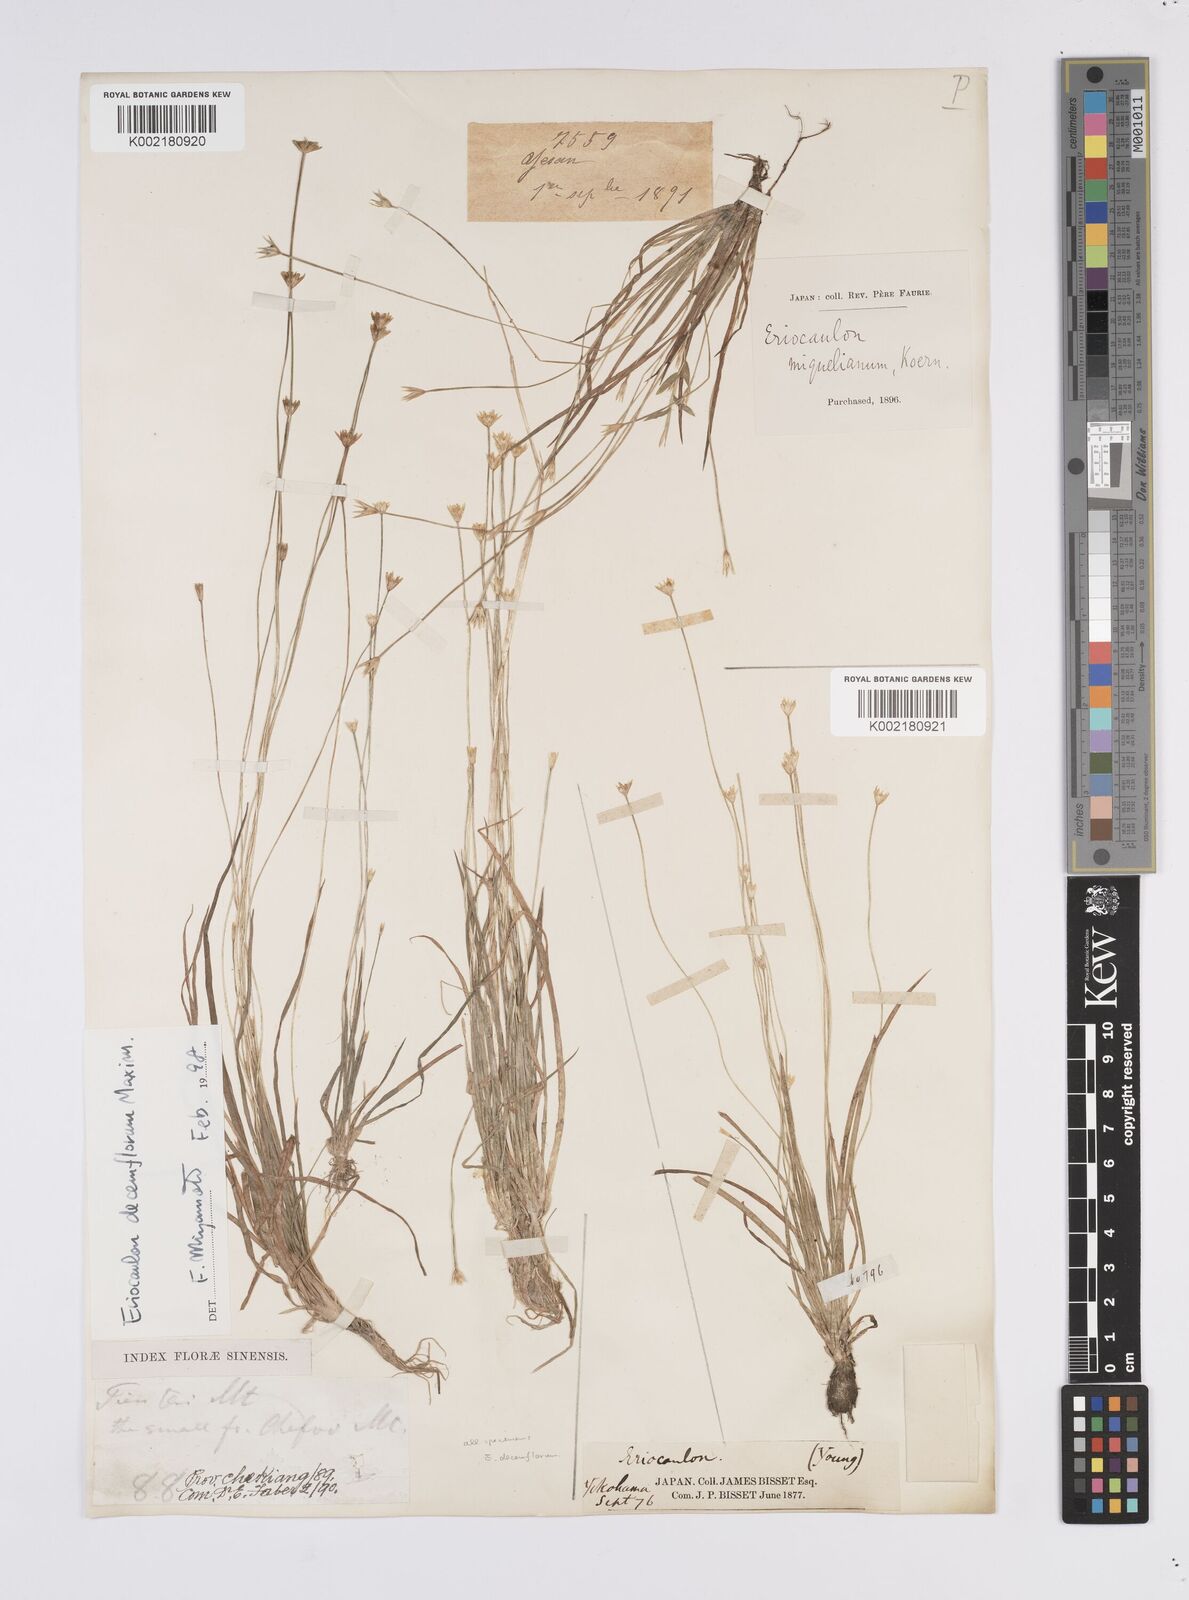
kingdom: Plantae
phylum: Tracheophyta
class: Liliopsida
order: Poales
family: Eriocaulaceae
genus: Eriocaulon
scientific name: Eriocaulon decemflorum
